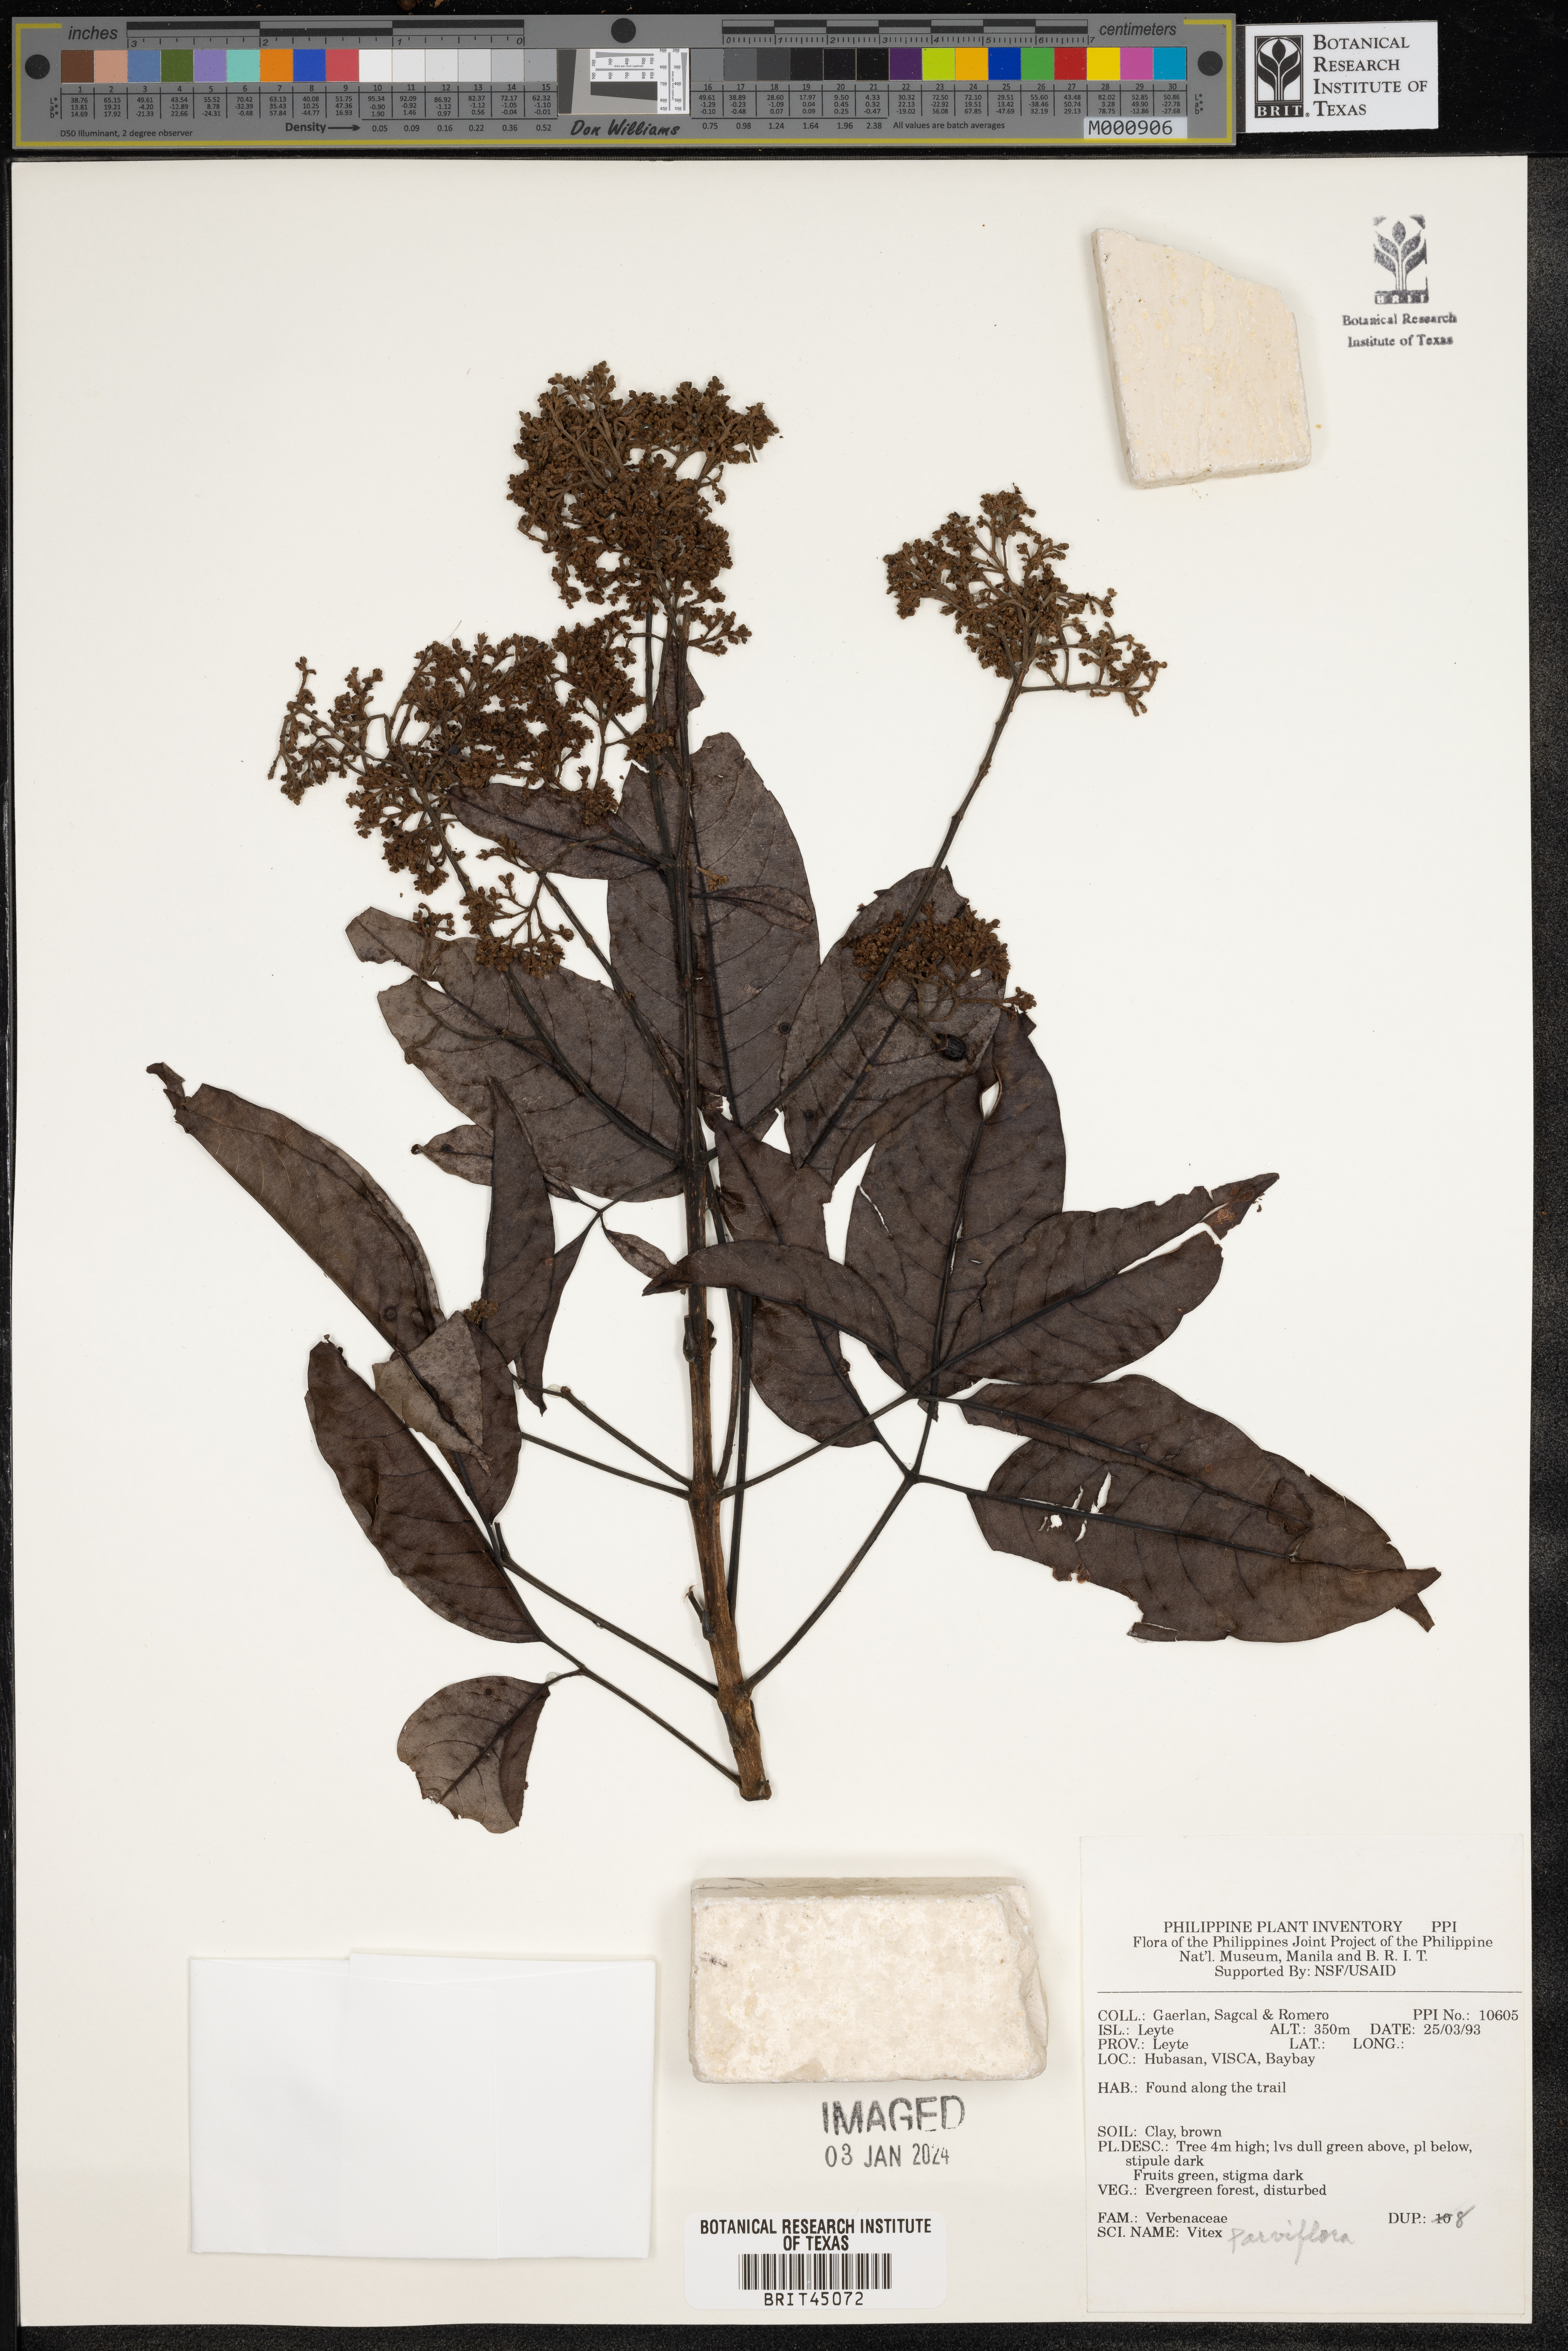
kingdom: Plantae
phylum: Tracheophyta
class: Magnoliopsida
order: Lamiales
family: Lamiaceae
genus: Vitex
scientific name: Vitex parviflora
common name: Smallflower chastetree
